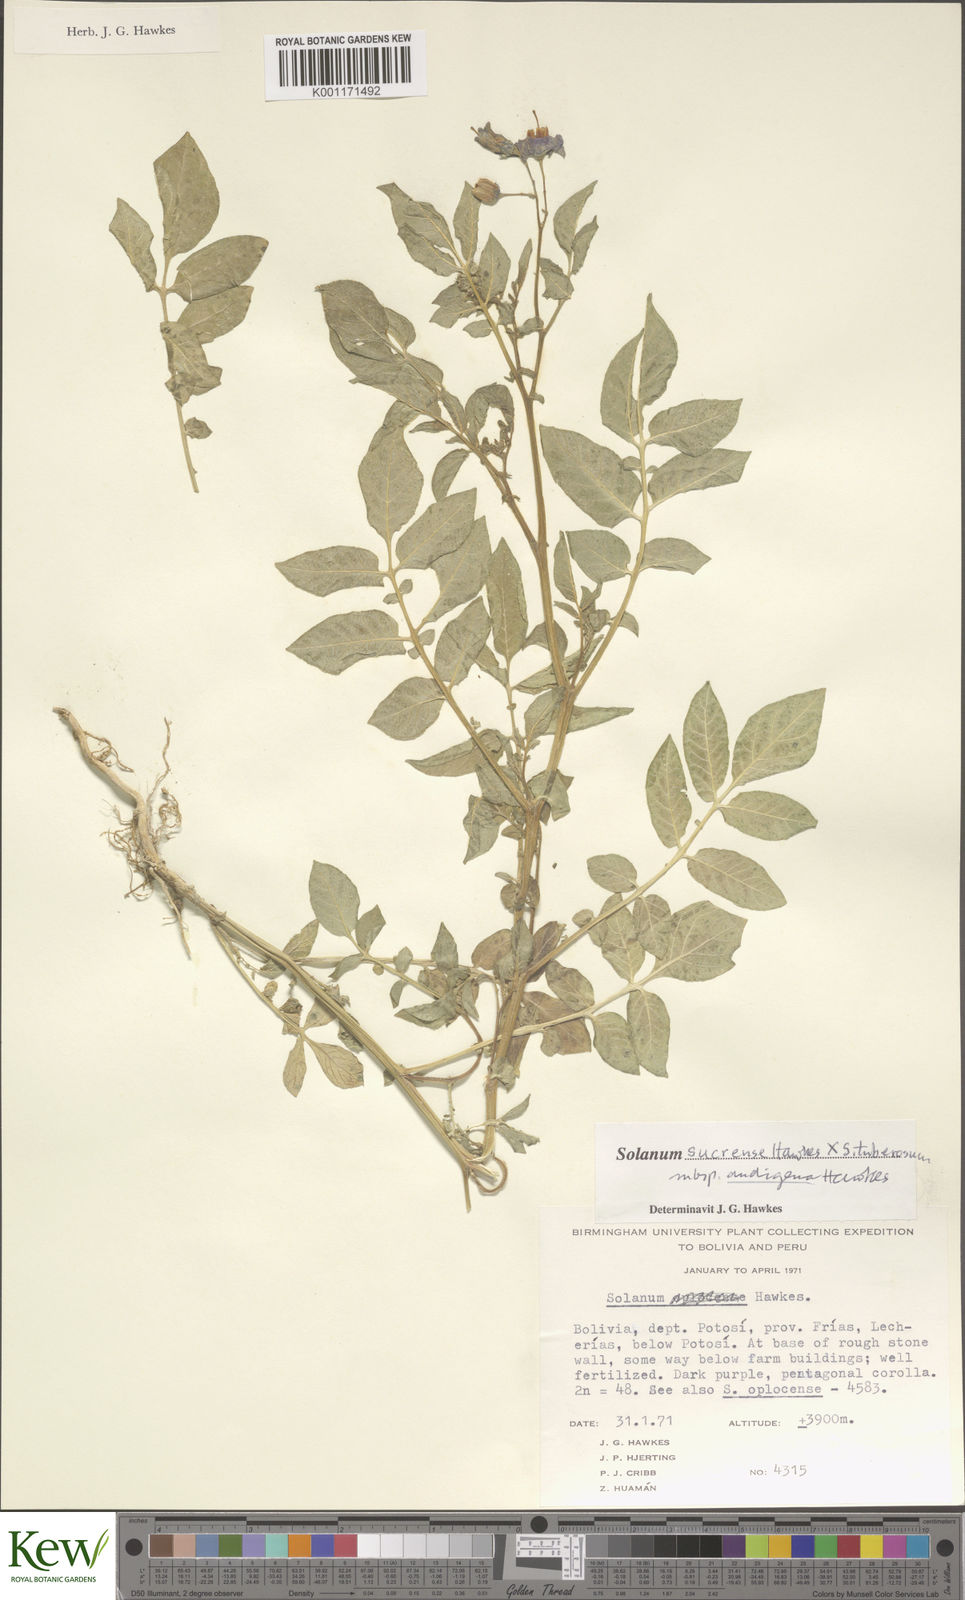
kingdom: Plantae
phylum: Tracheophyta
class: Magnoliopsida
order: Solanales
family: Solanaceae
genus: Solanum
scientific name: Solanum tuberosum
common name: Potato
